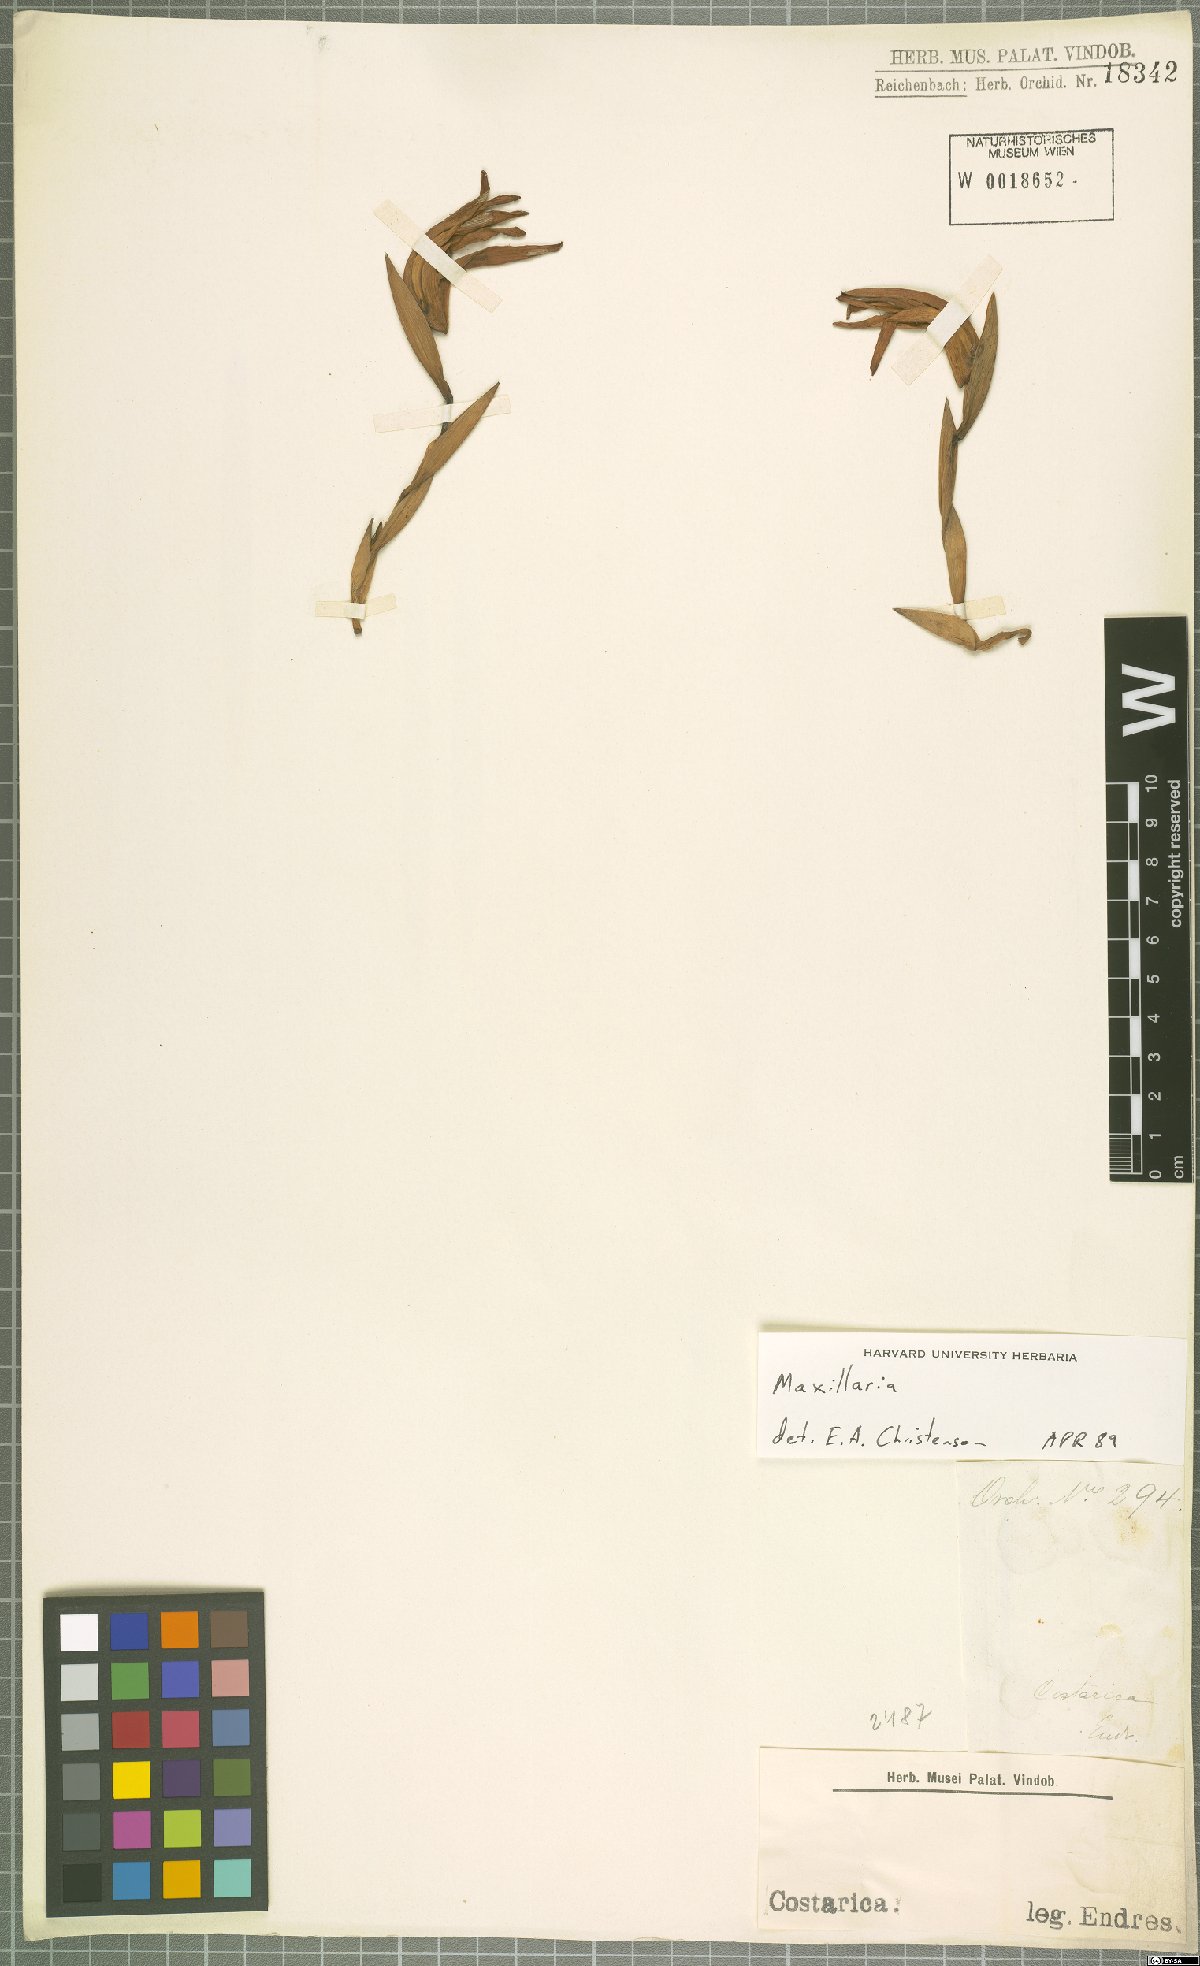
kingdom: Plantae
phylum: Tracheophyta
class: Liliopsida
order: Asparagales
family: Orchidaceae
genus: Maxillaria
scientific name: Maxillaria
